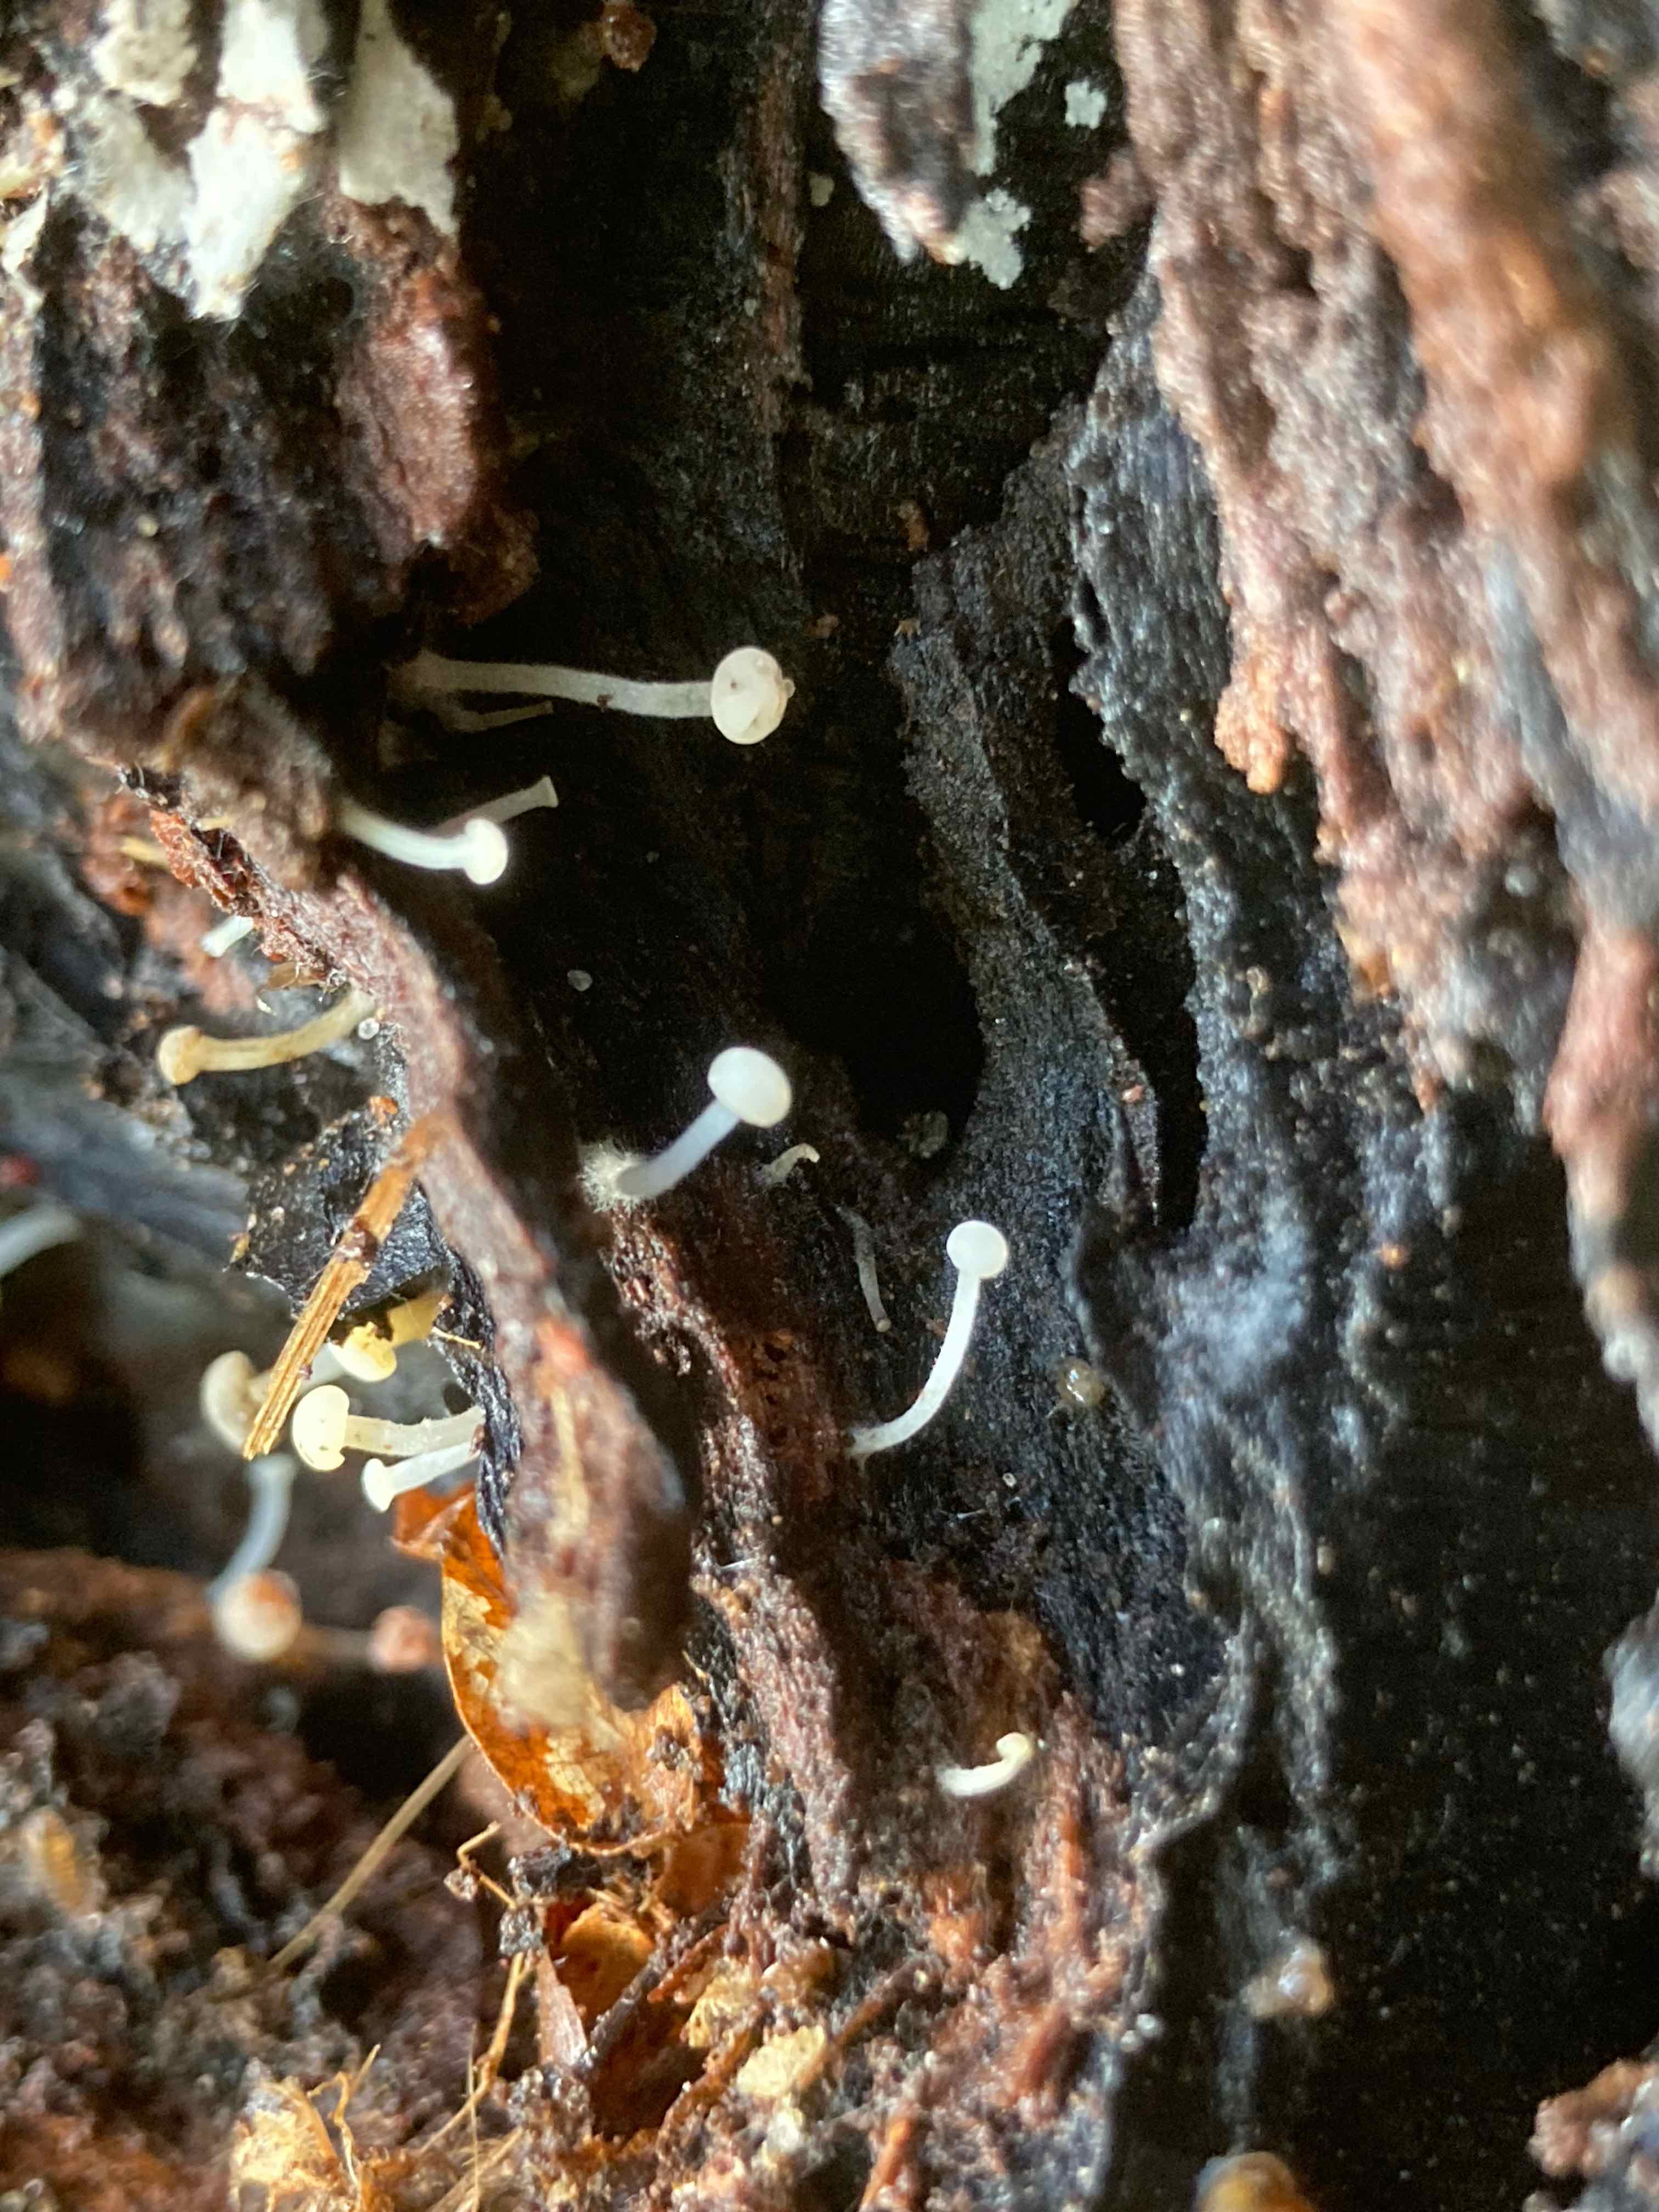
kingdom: Fungi
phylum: Ascomycota
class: Leotiomycetes
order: Helotiales
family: Tricladiaceae
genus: Cudoniella
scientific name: Cudoniella acicularis
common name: ege-dyndskive
